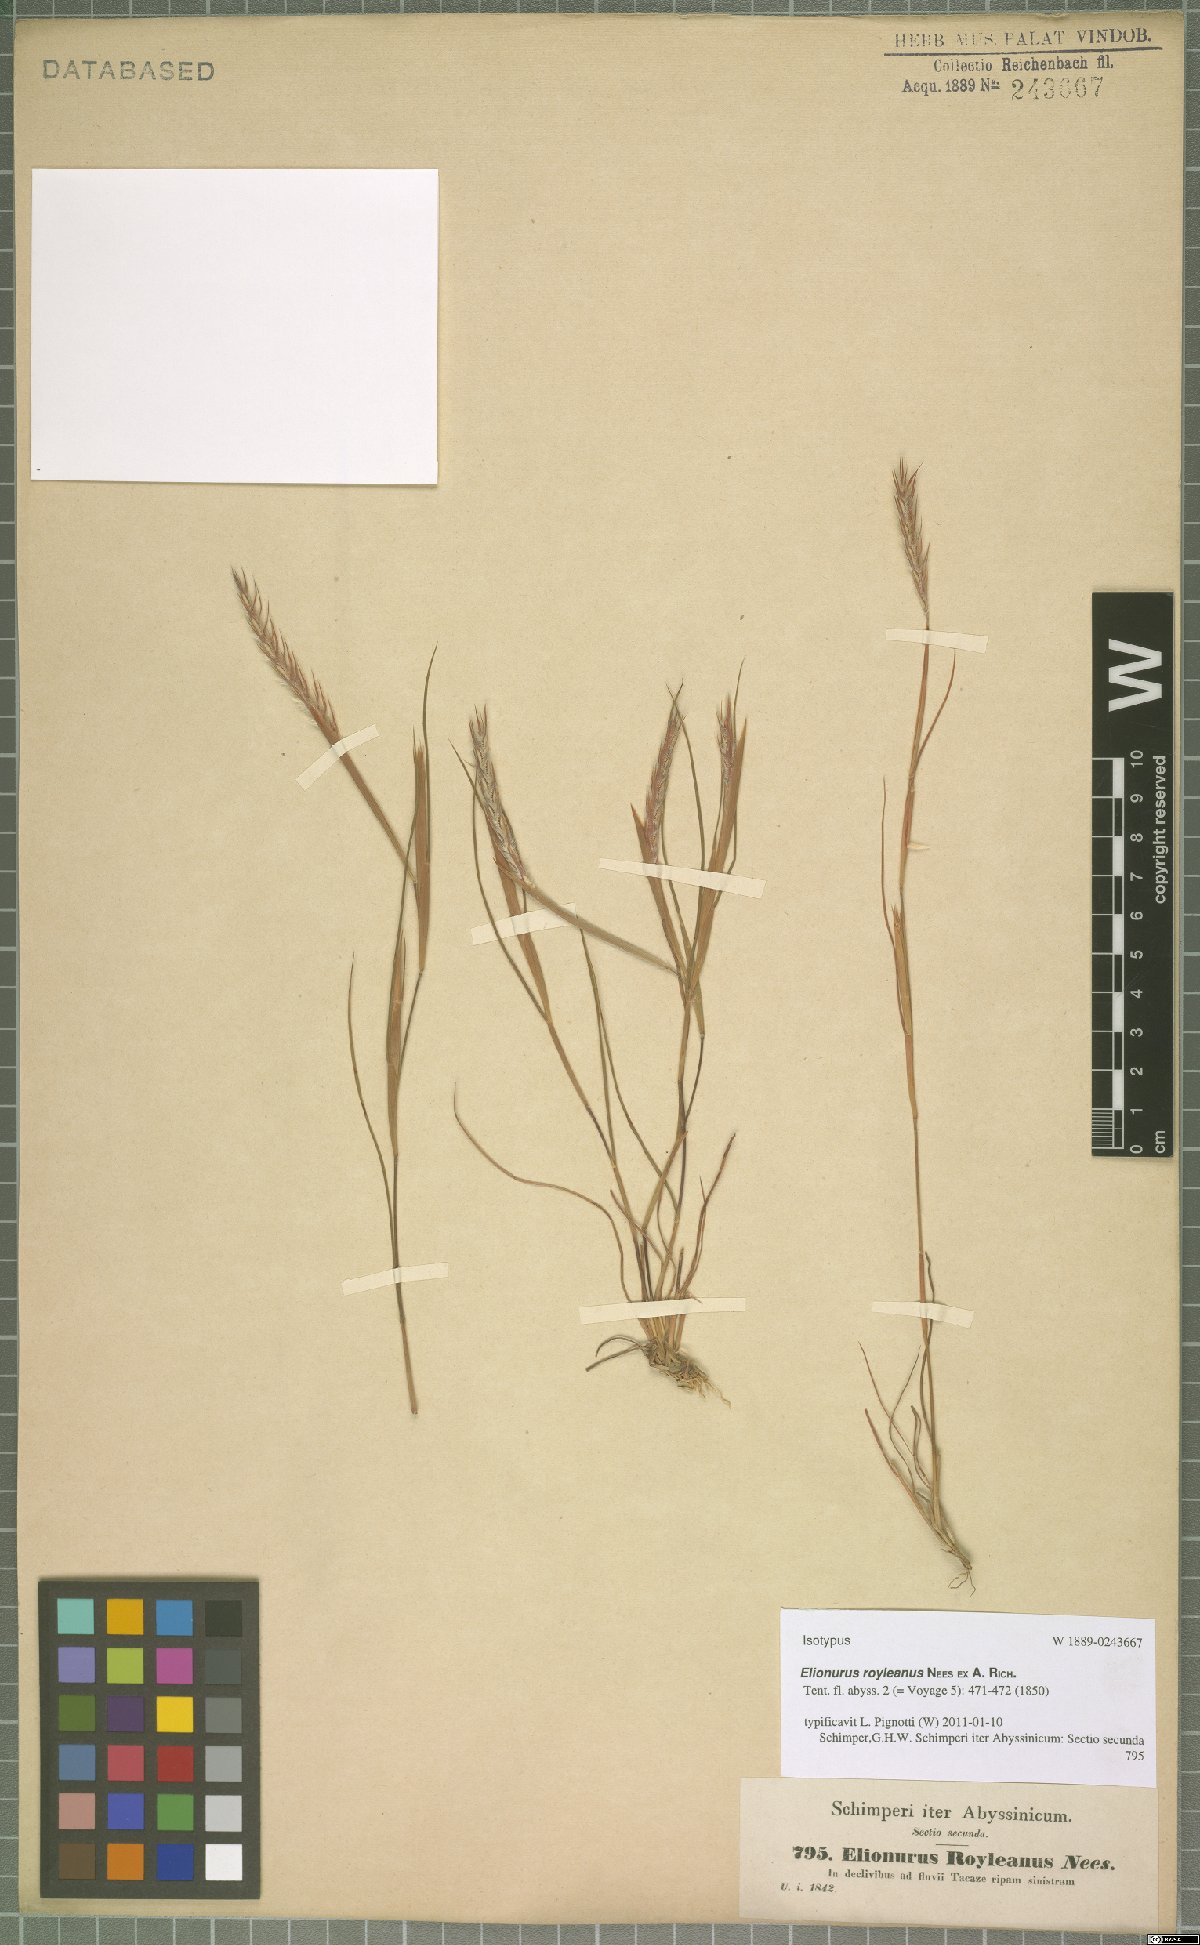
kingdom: Plantae
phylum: Tracheophyta
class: Liliopsida
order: Poales
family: Poaceae
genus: Elionurus
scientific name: Elionurus royleanus
